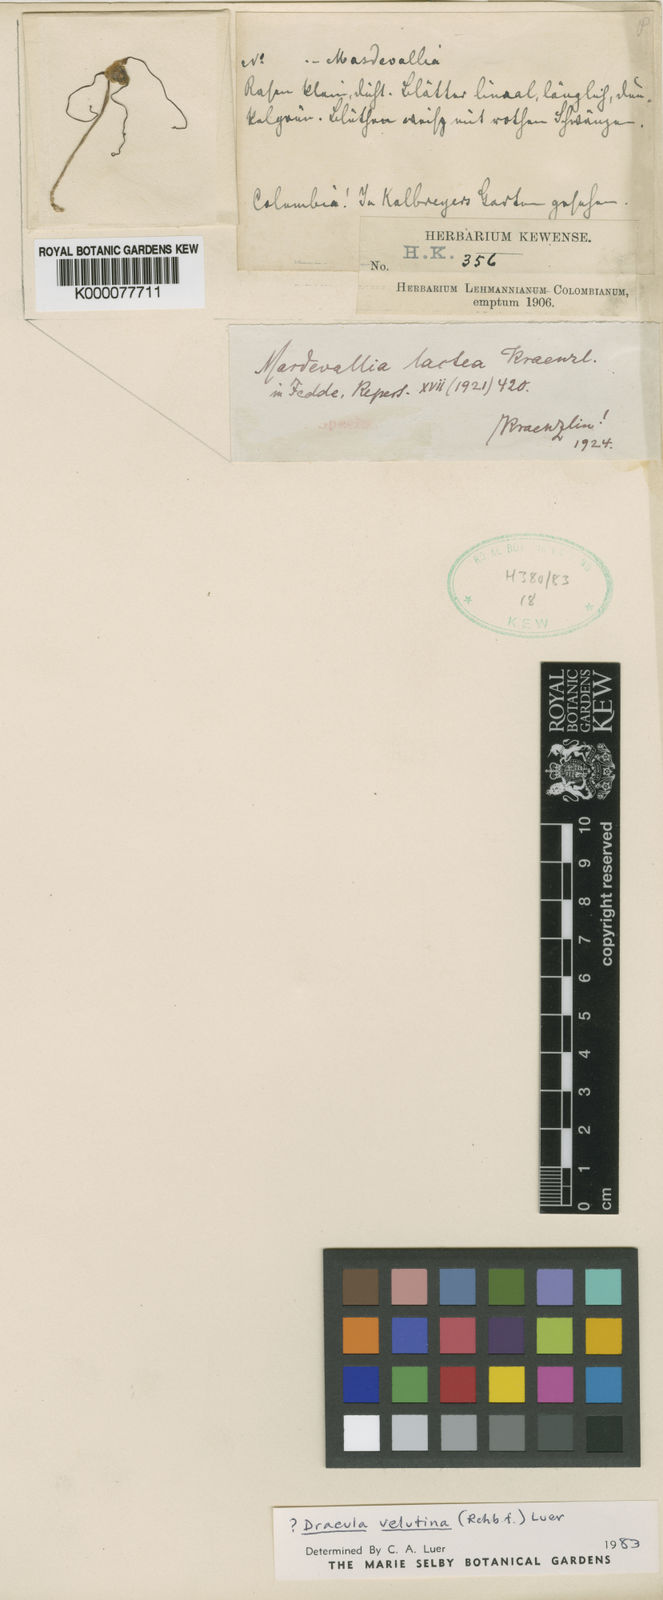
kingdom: Plantae
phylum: Tracheophyta
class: Liliopsida
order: Asparagales
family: Orchidaceae
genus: Dracula
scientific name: Dracula velutina
